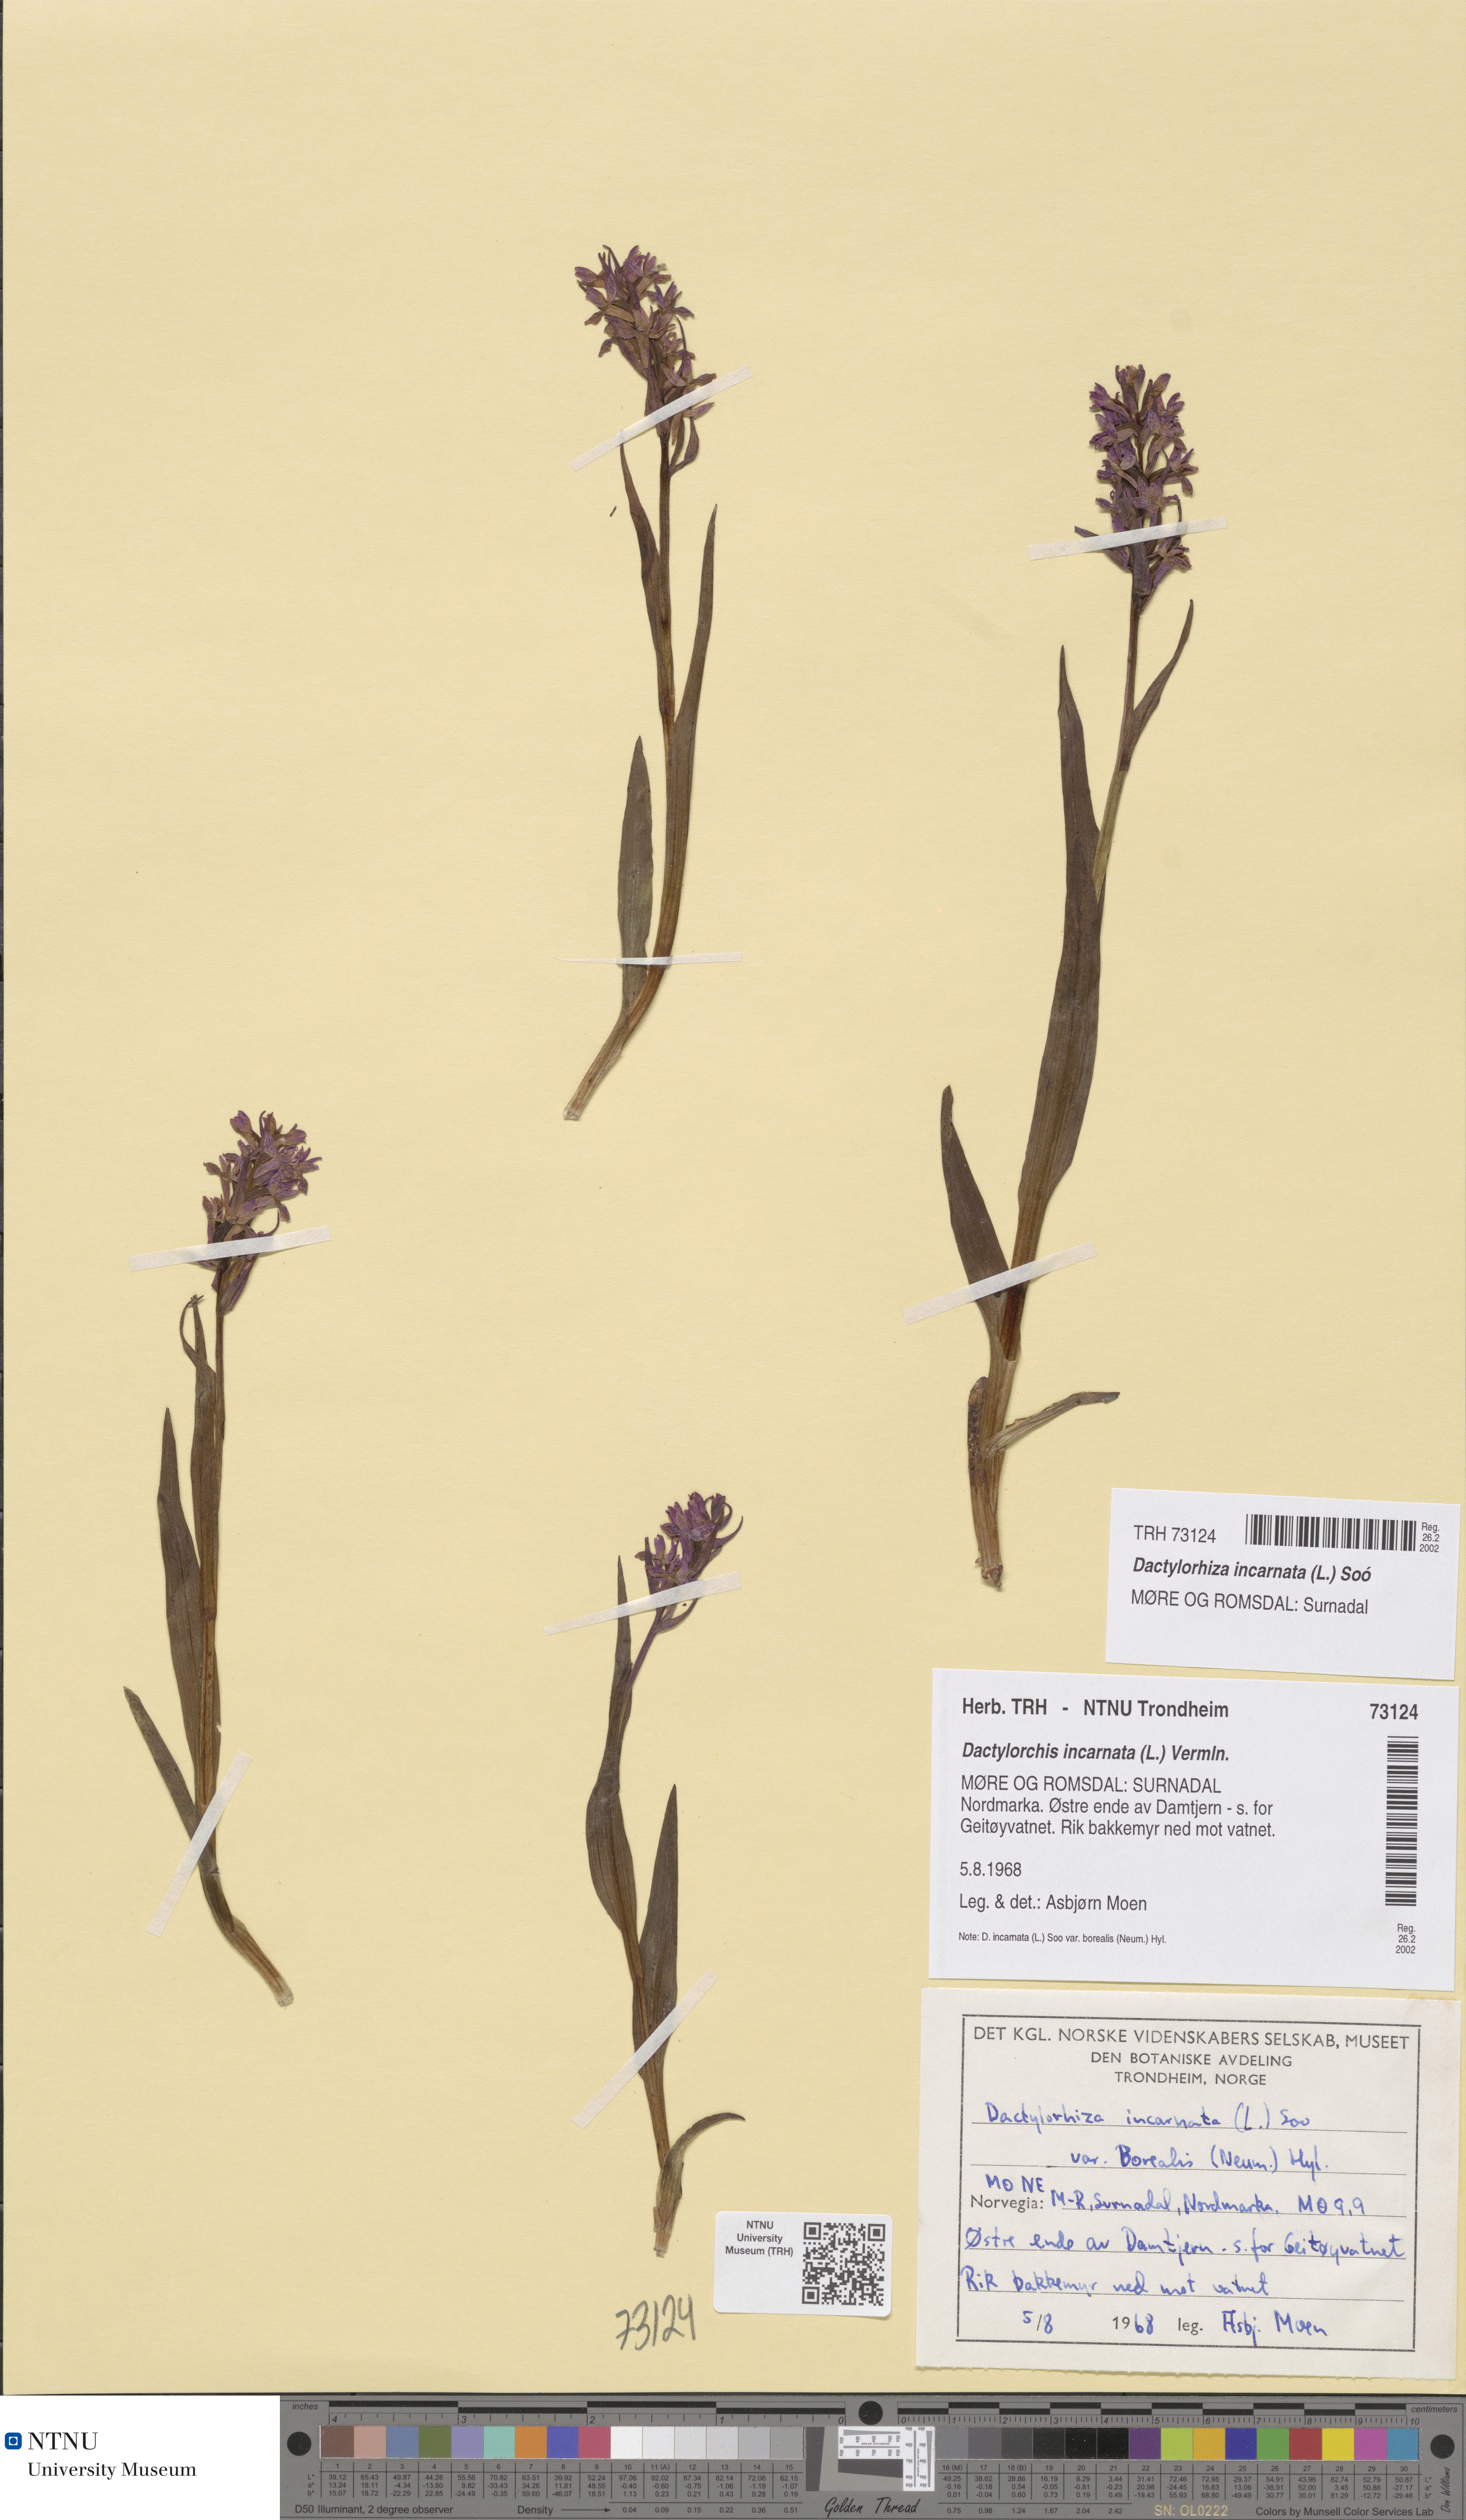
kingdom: Plantae
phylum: Tracheophyta
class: Liliopsida
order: Asparagales
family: Orchidaceae
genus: Dactylorhiza
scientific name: Dactylorhiza incarnata
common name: Early marsh-orchid
